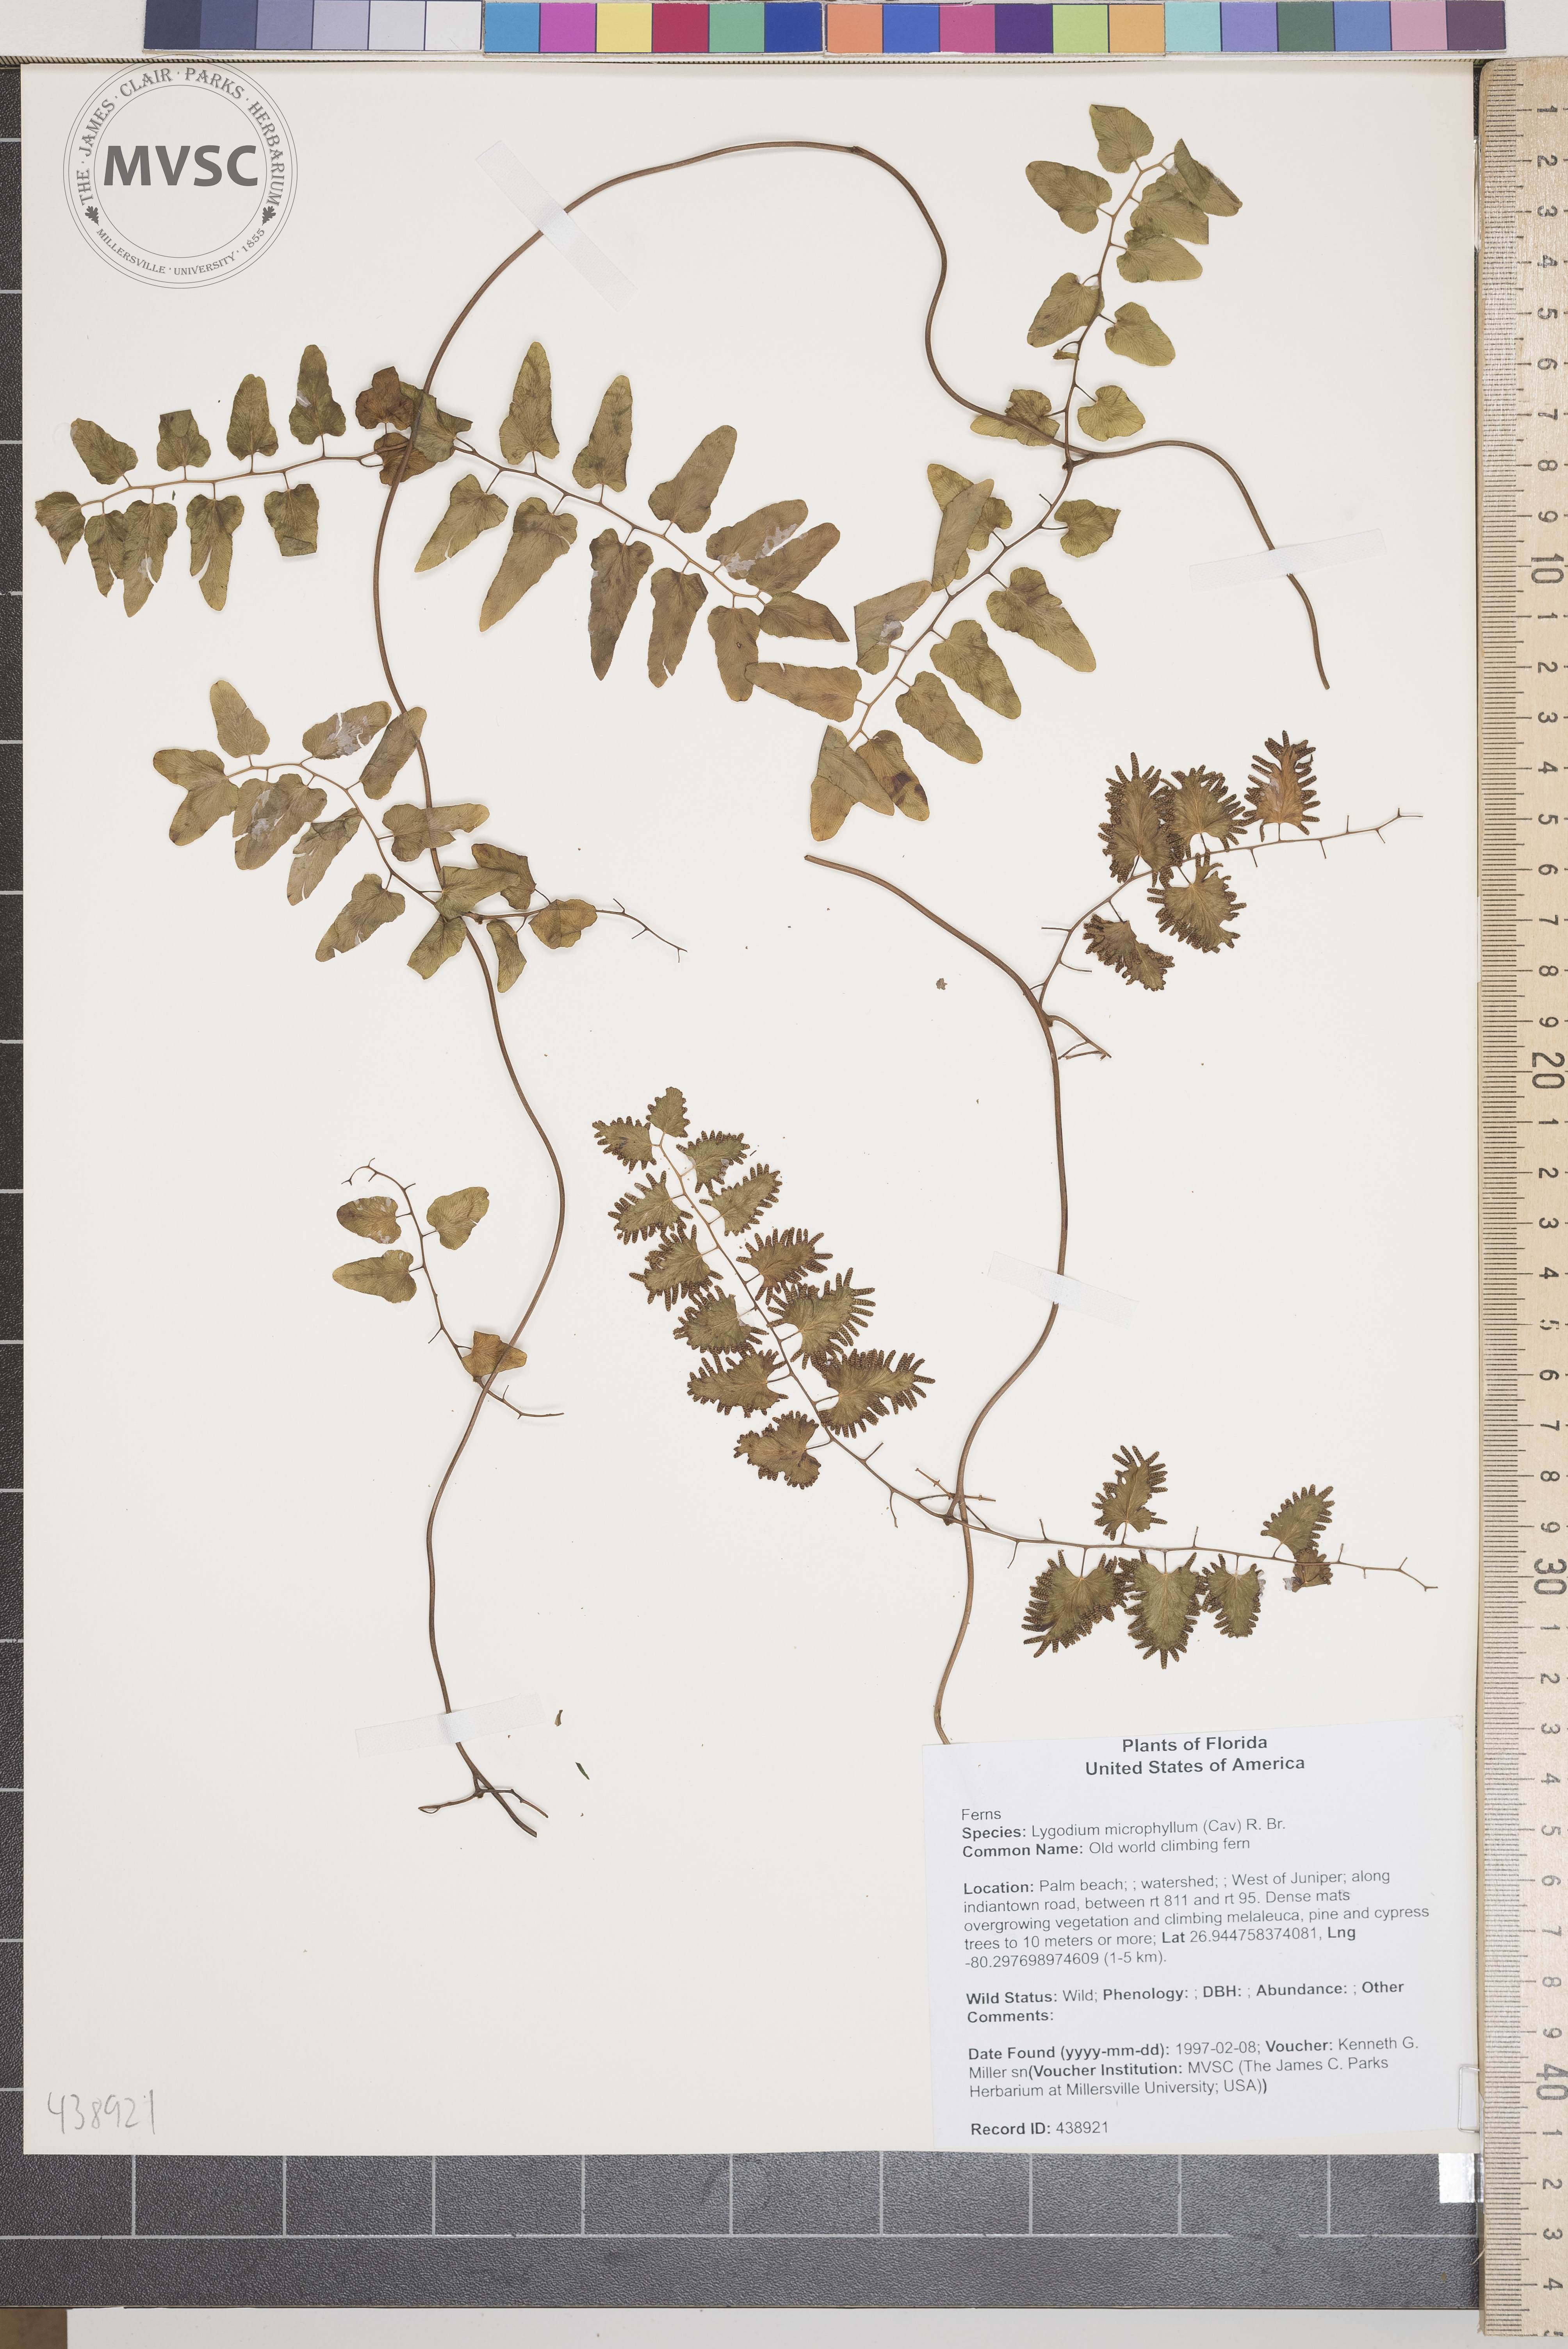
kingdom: Plantae
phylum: Tracheophyta
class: Polypodiopsida
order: Schizaeales
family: Lygodiaceae
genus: Lygodium
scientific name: Lygodium microphyllum
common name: Old world climbing fern
